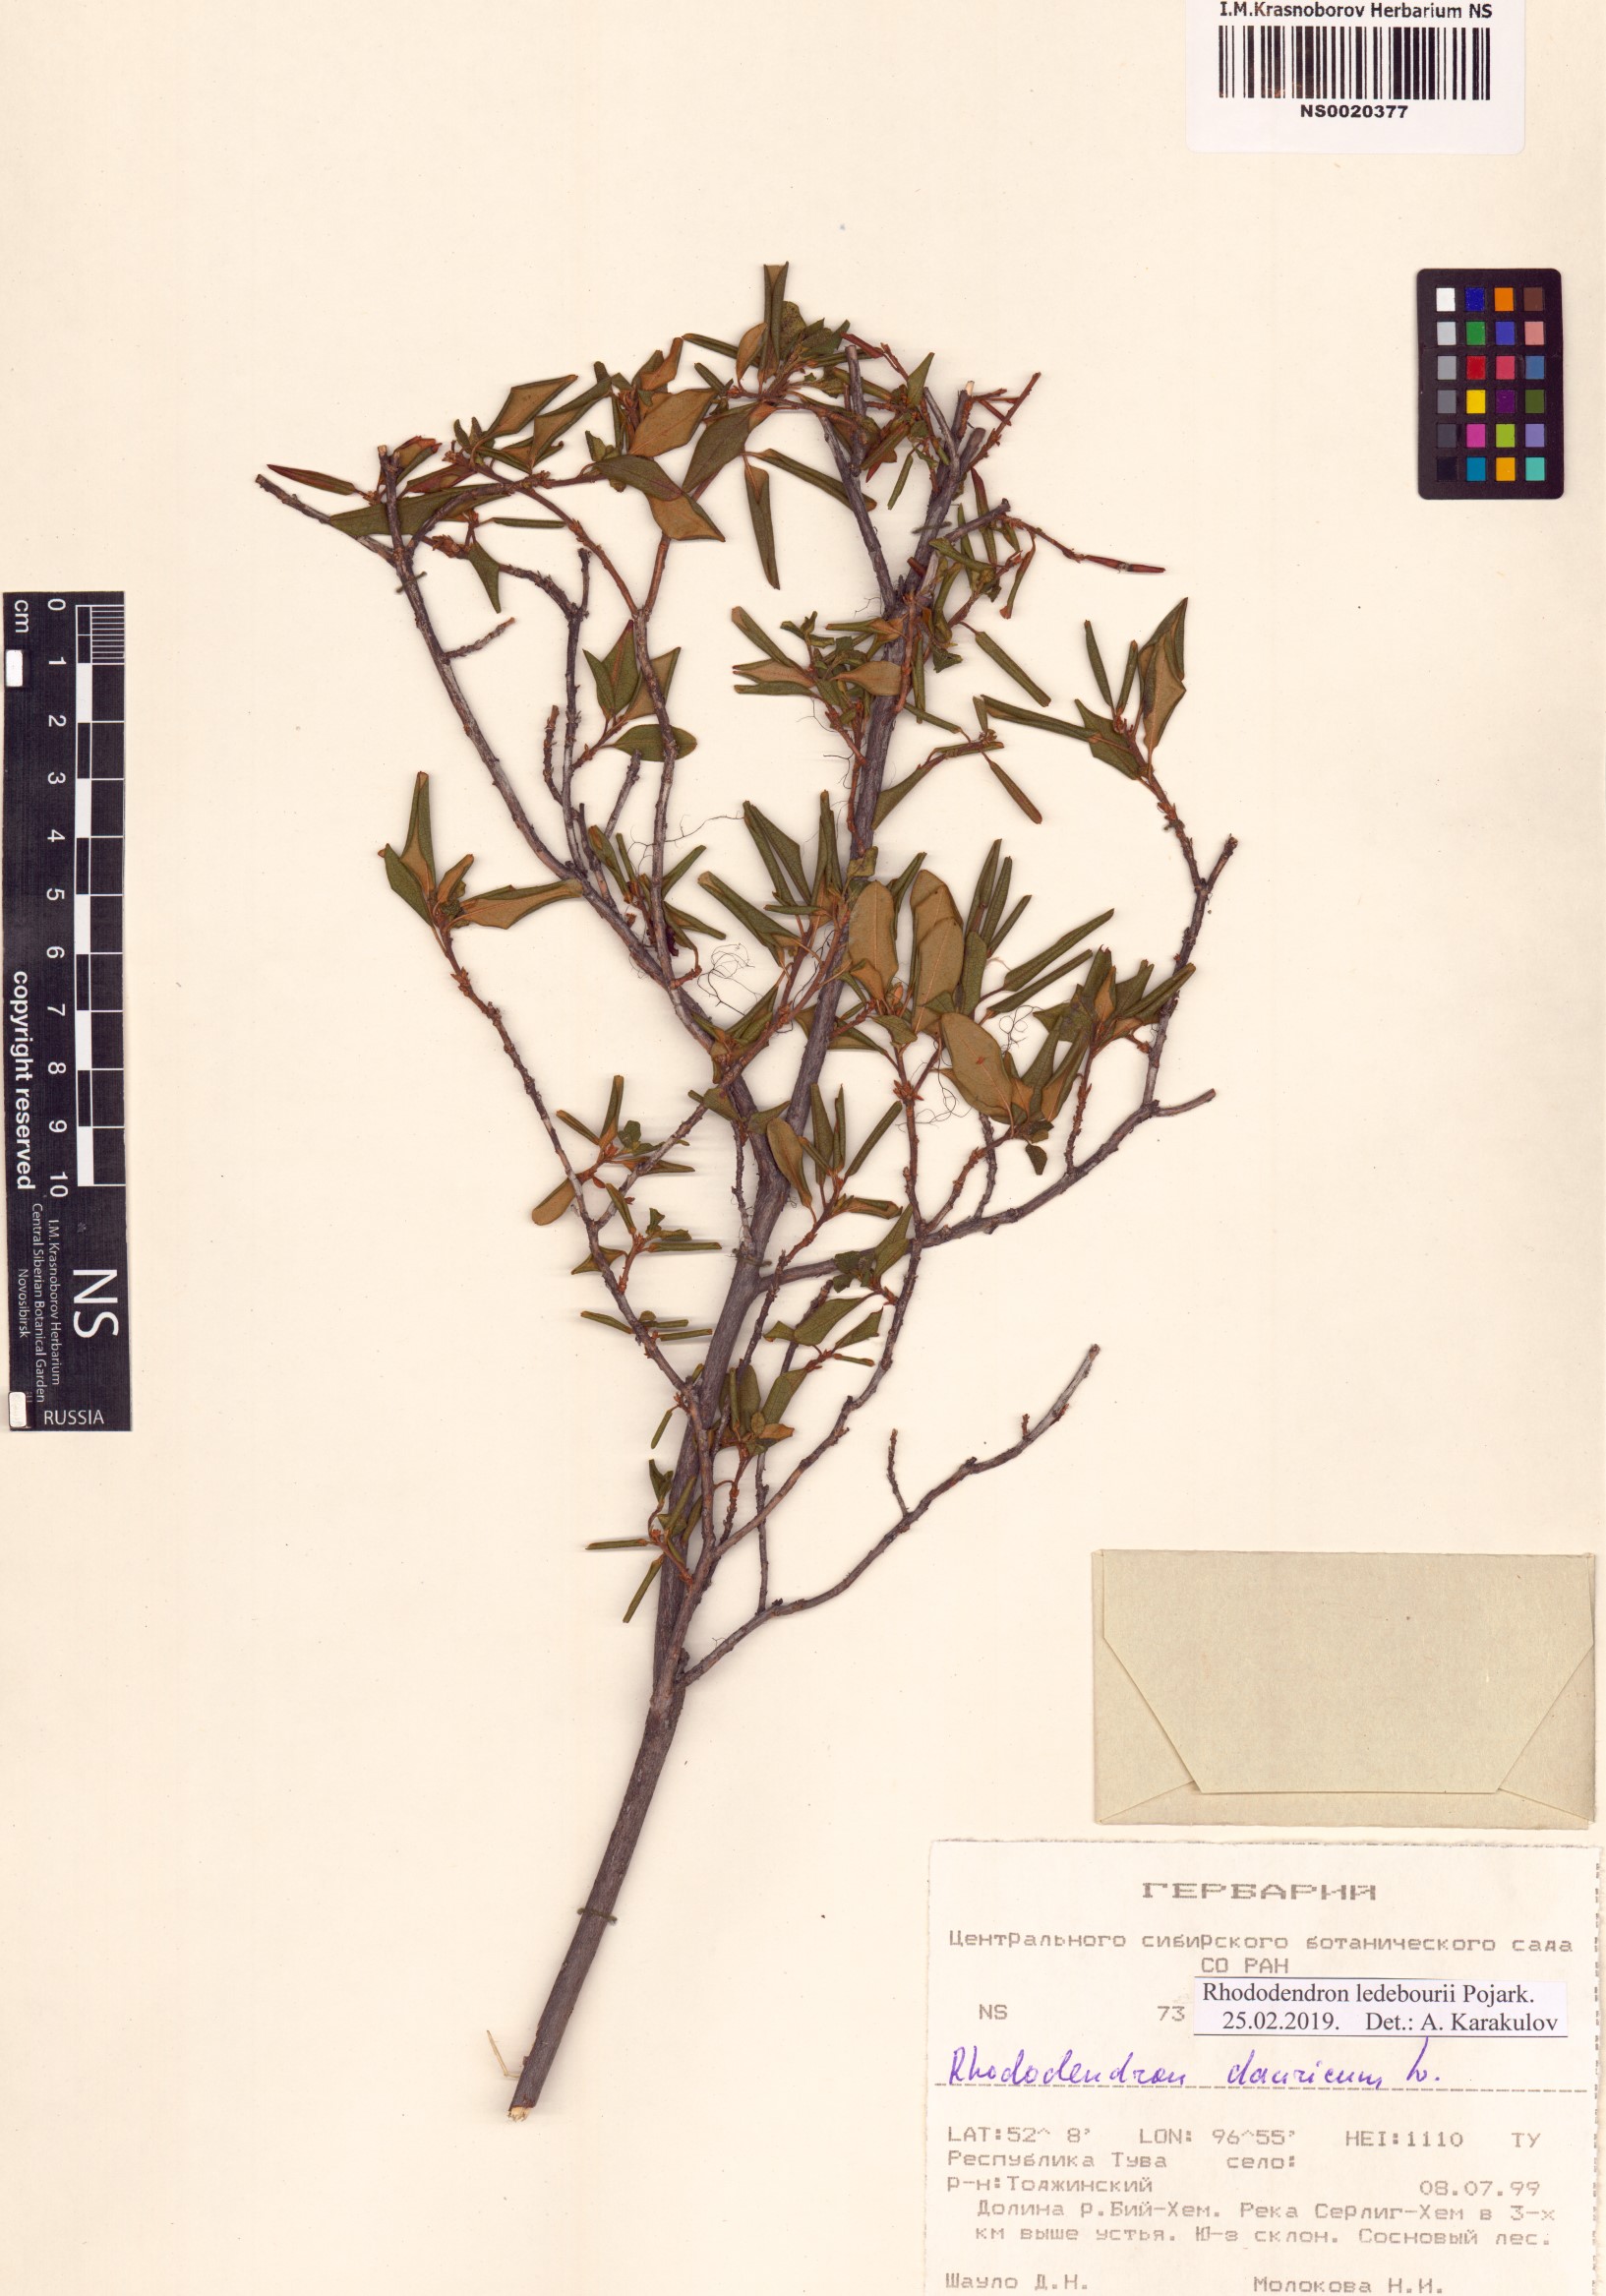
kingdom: Plantae
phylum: Tracheophyta
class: Magnoliopsida
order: Ericales
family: Ericaceae
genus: Rhododendron
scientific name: Rhododendron dauricum
